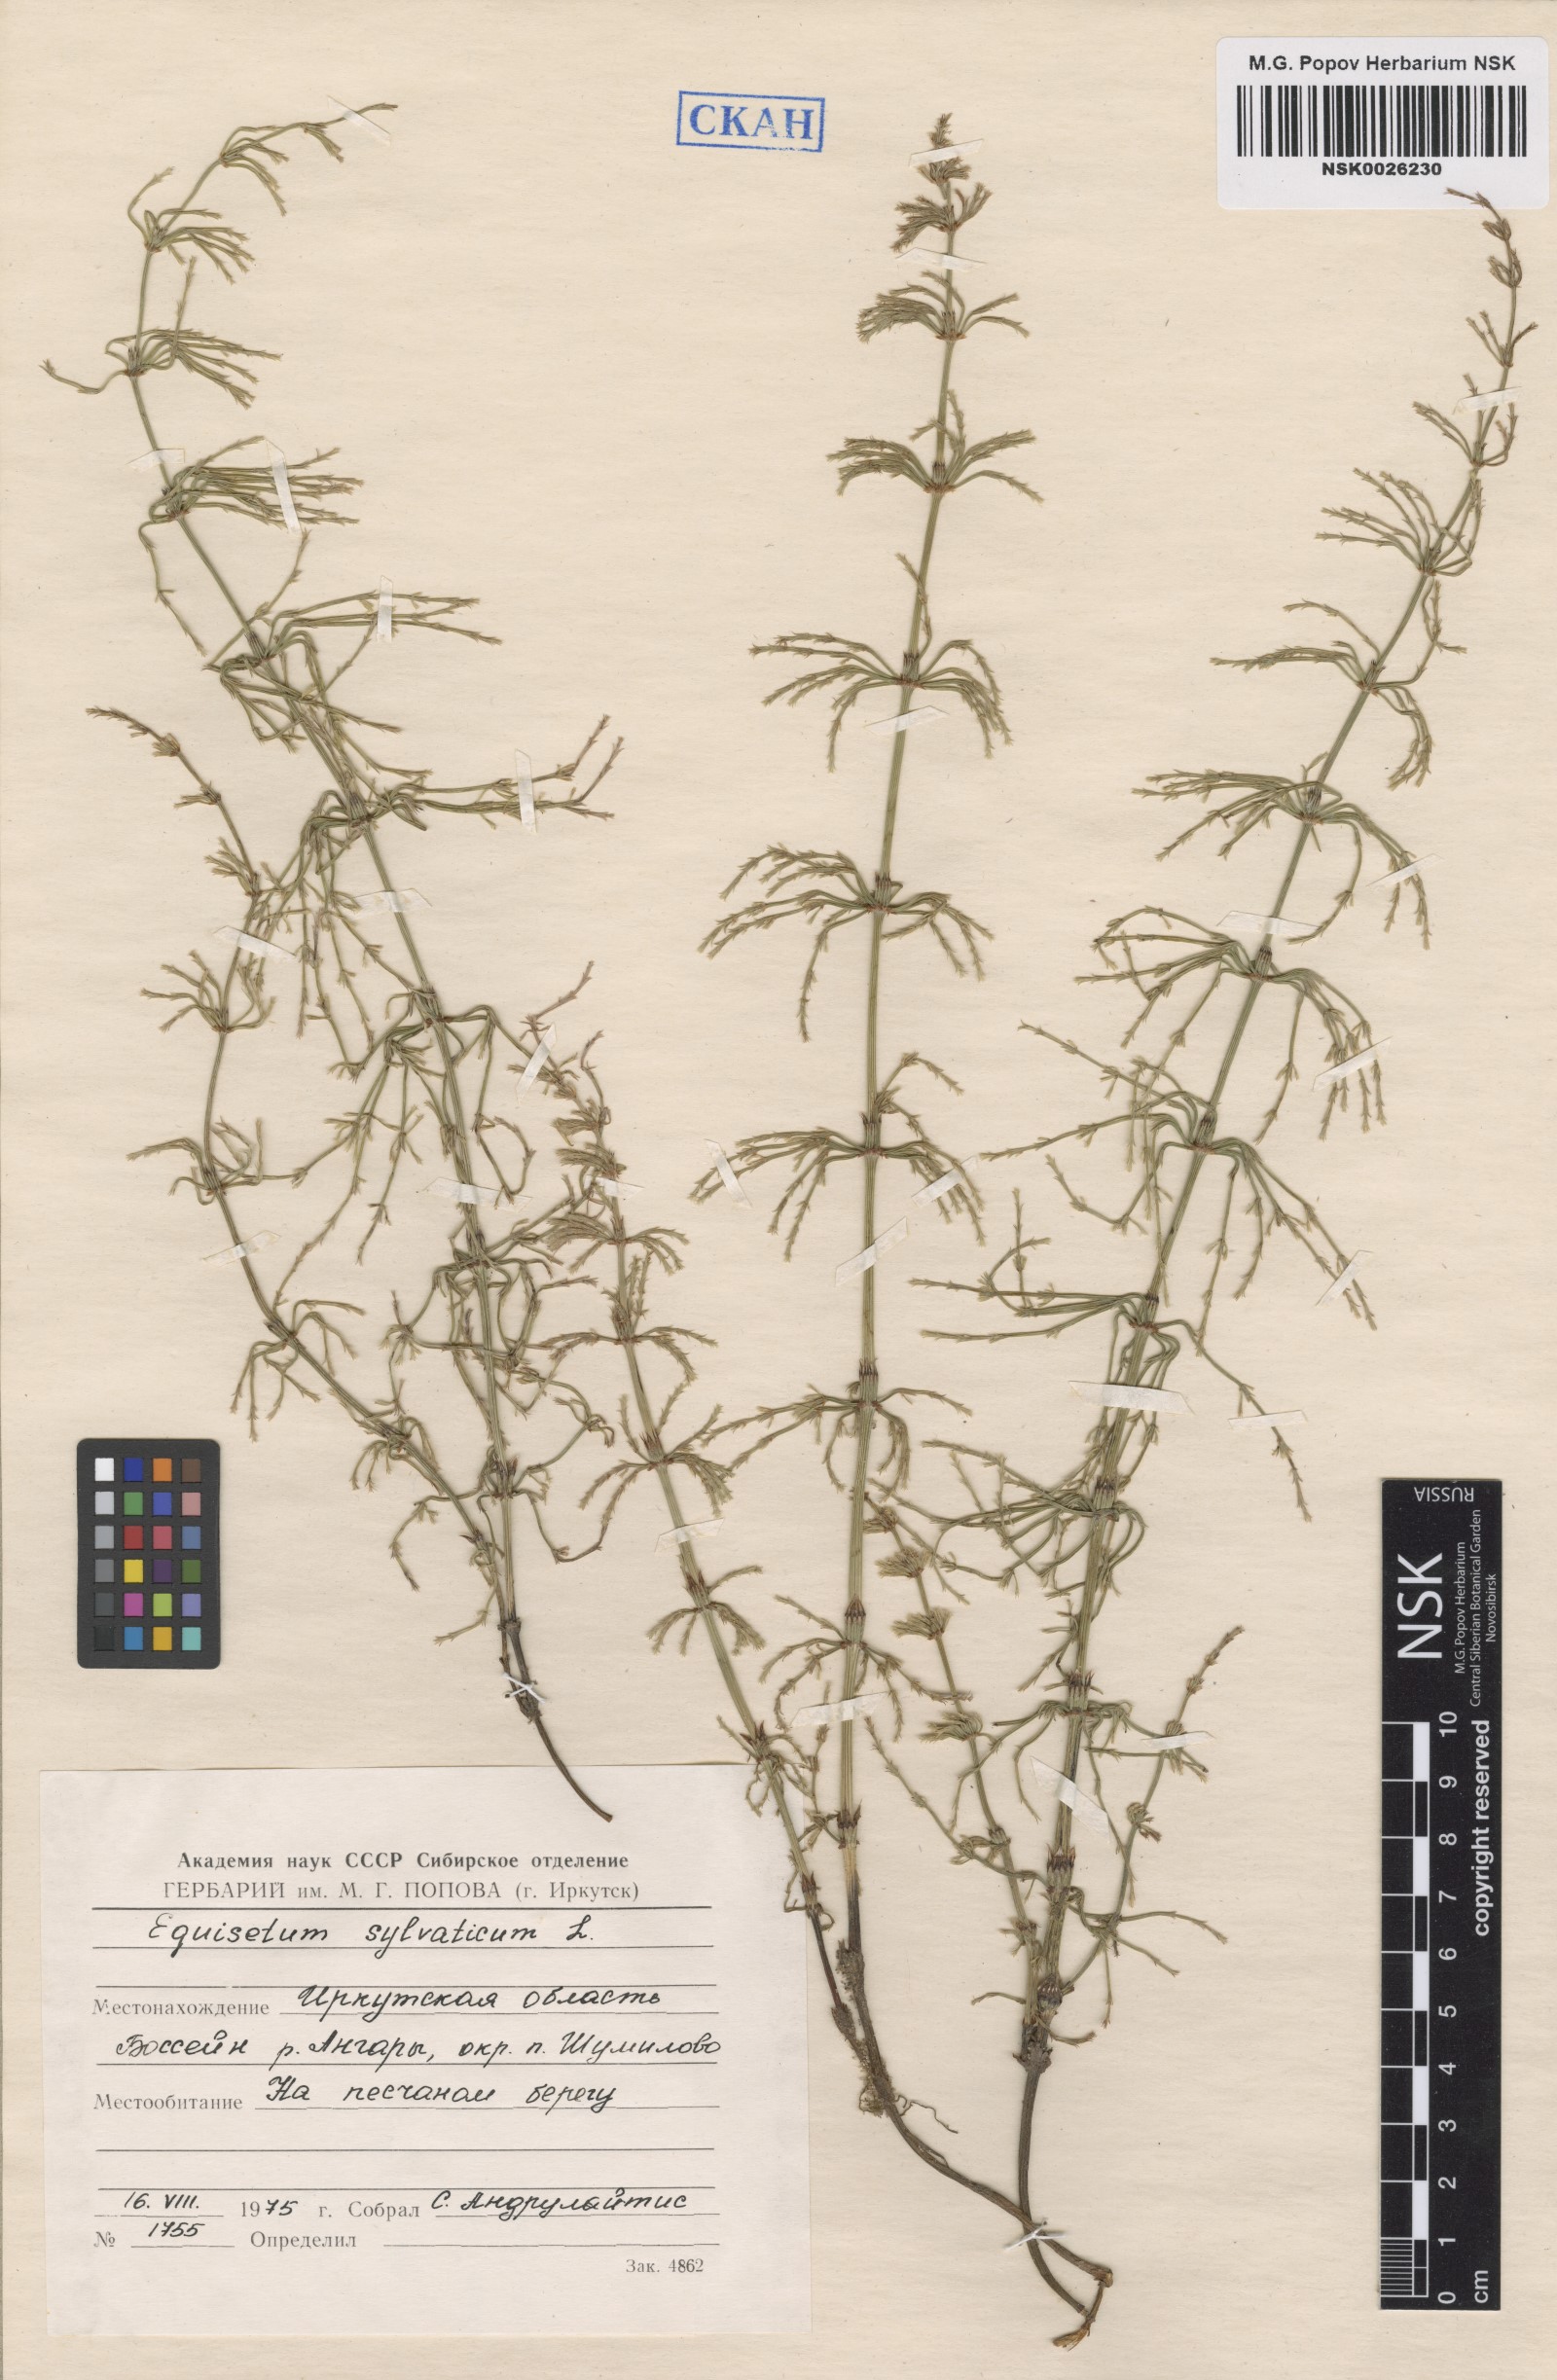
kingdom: Plantae
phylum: Tracheophyta
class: Polypodiopsida
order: Equisetales
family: Equisetaceae
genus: Equisetum
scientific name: Equisetum sylvaticum
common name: Wood horsetail
